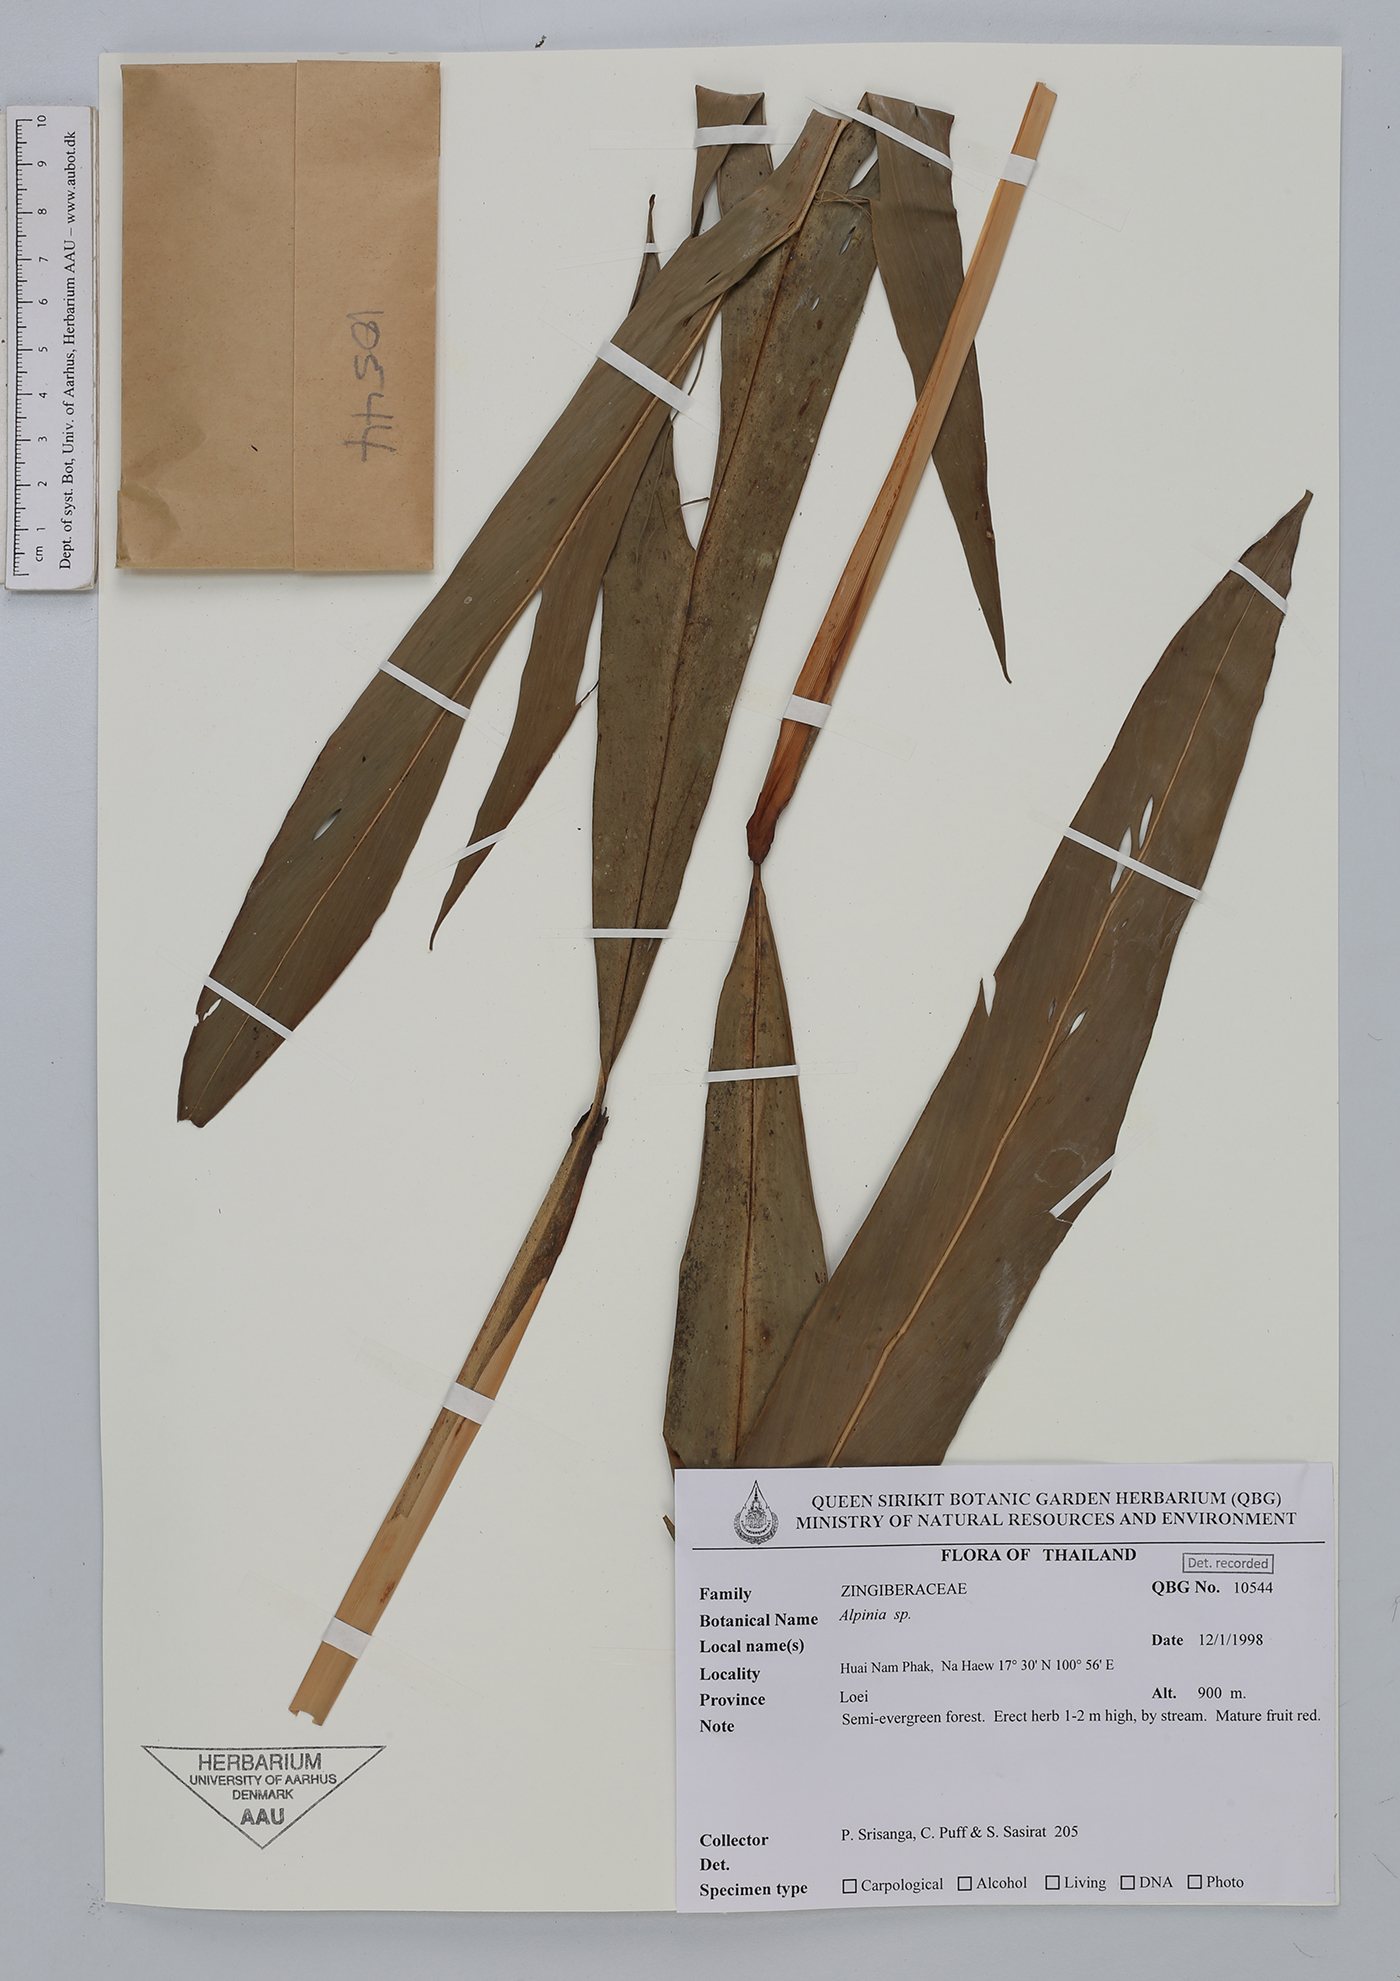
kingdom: Plantae
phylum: Tracheophyta
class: Liliopsida
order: Zingiberales
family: Zingiberaceae
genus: Alpinia
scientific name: Alpinia
